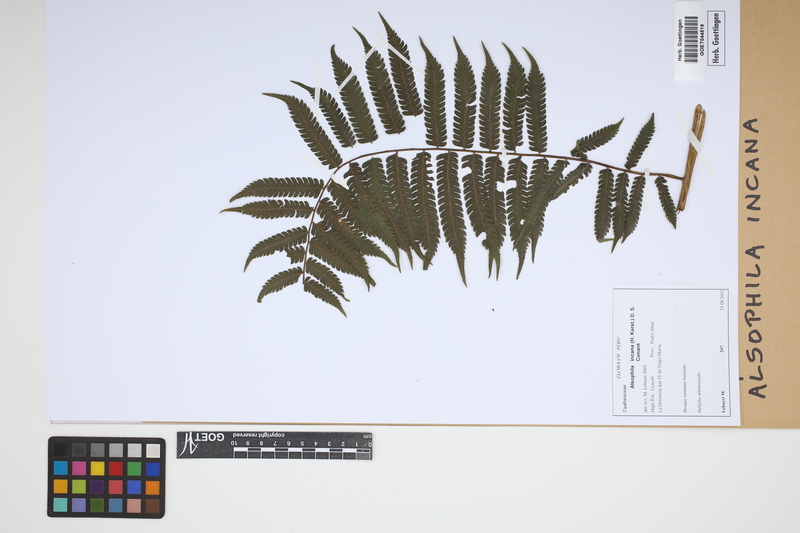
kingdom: Plantae
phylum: Tracheophyta
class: Polypodiopsida
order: Cyatheales
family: Cyatheaceae
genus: Alsophila
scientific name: Alsophila incana
